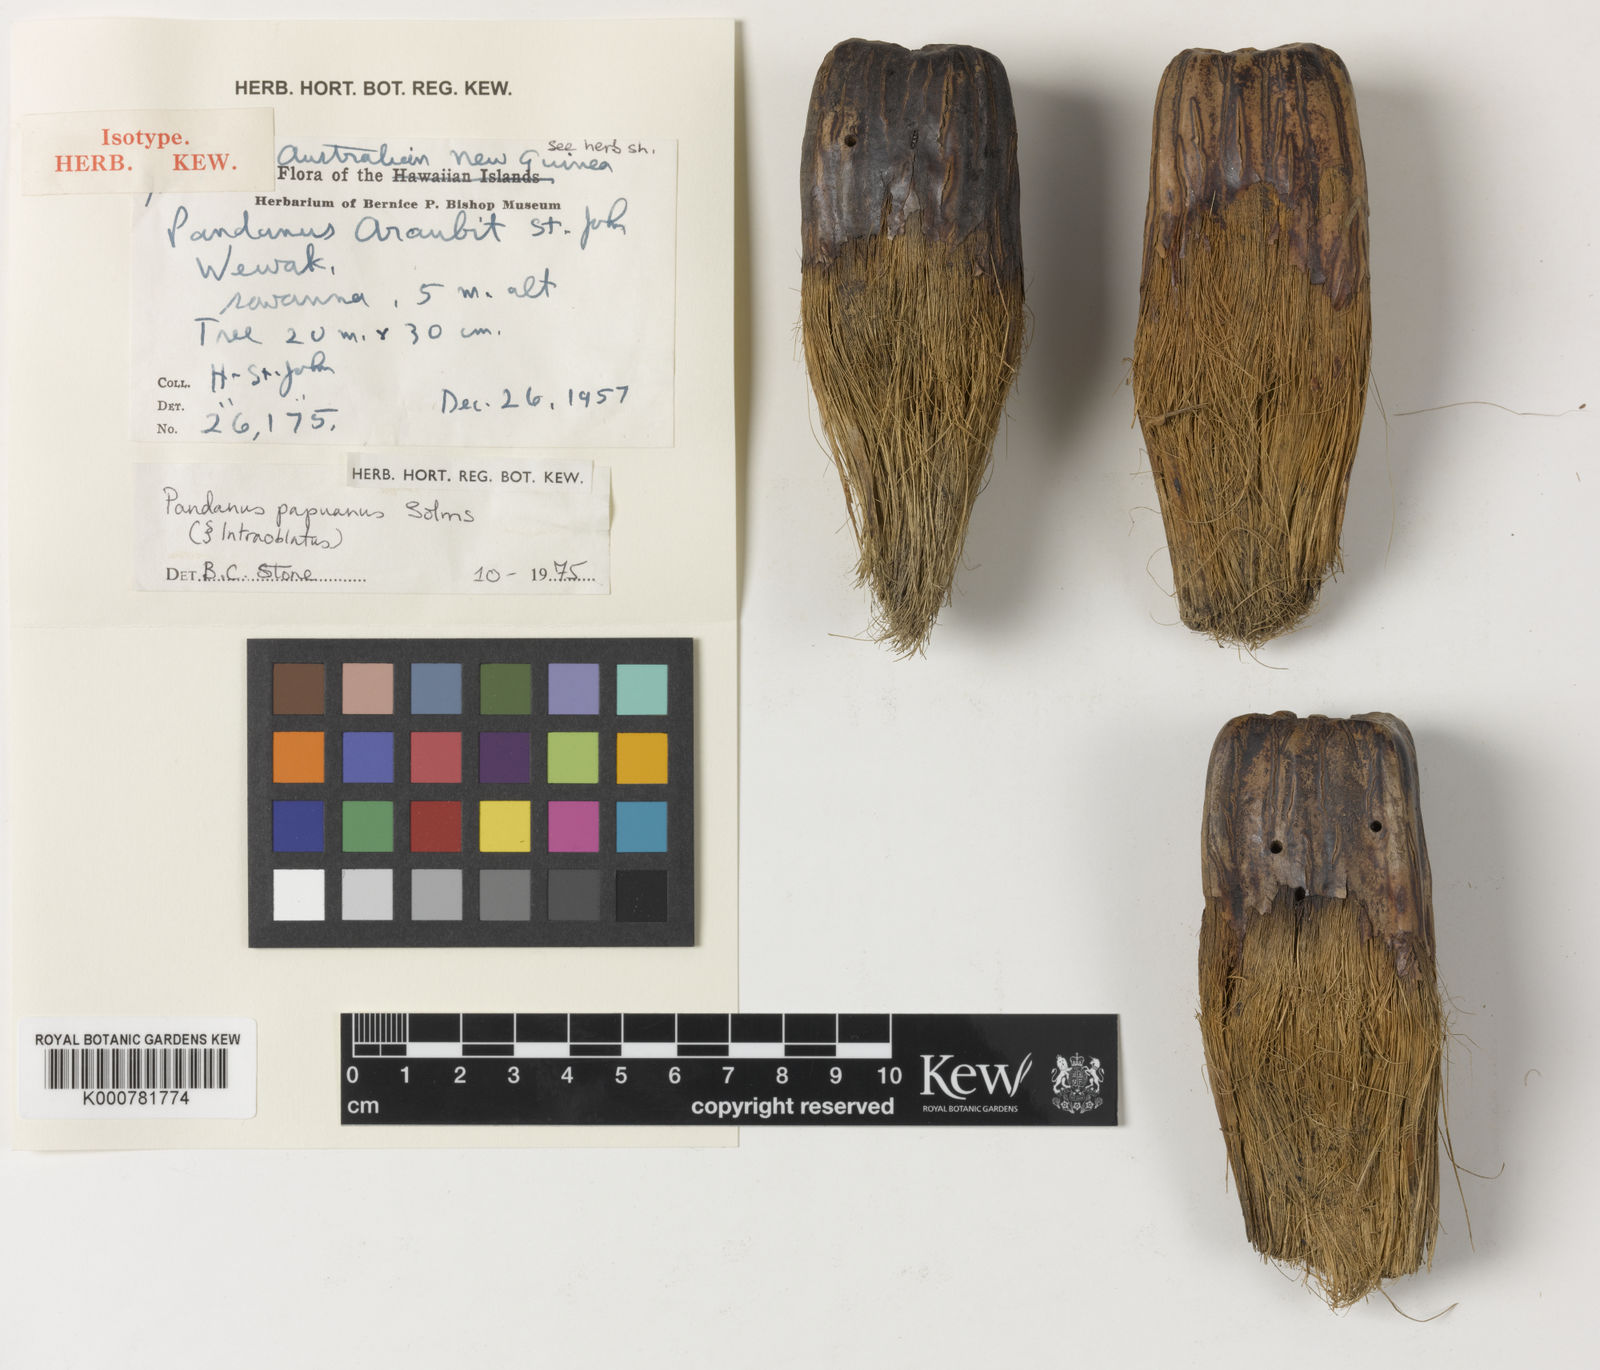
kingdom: Plantae
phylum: Tracheophyta
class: Liliopsida
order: Pandanales
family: Pandanaceae
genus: Pandanus
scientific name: Pandanus
